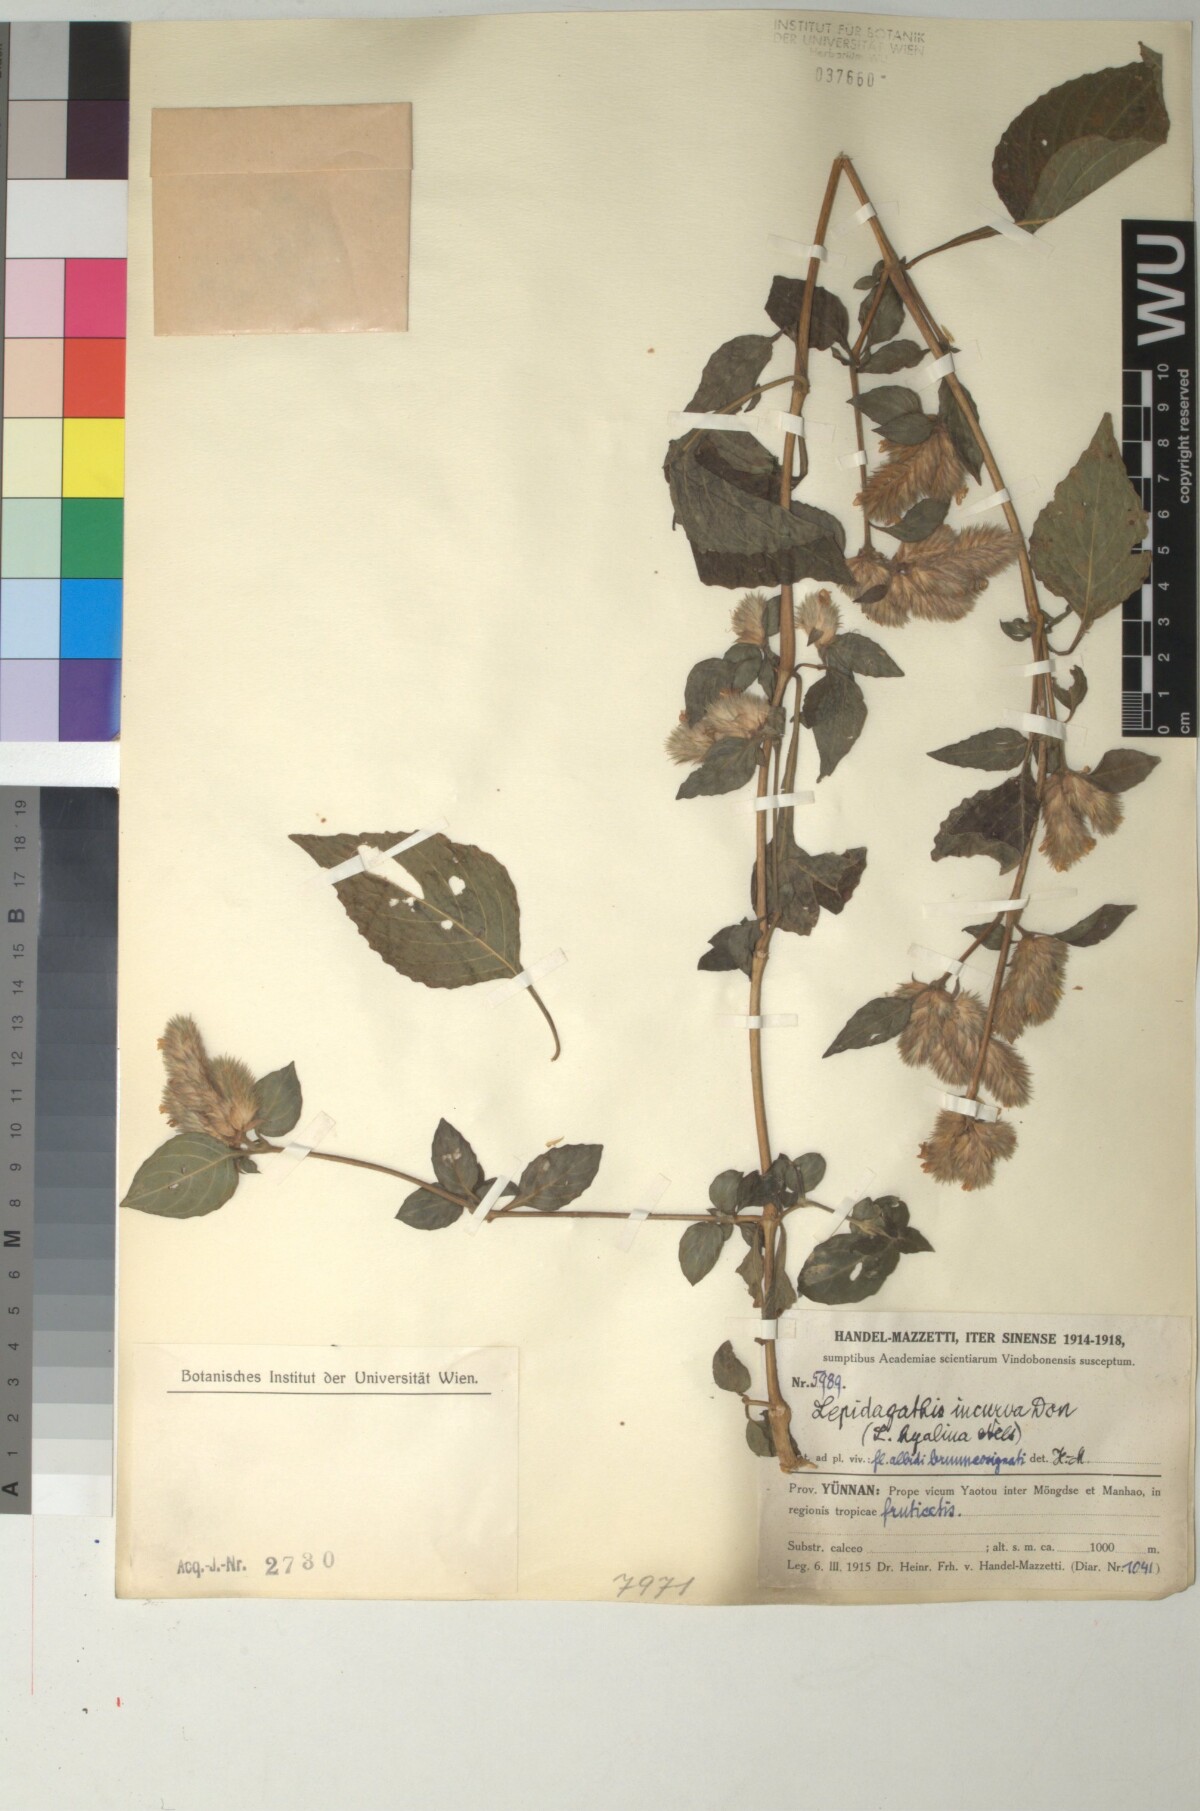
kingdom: Plantae
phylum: Tracheophyta
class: Magnoliopsida
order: Lamiales
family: Acanthaceae
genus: Lepidagathis
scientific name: Lepidagathis incurva
